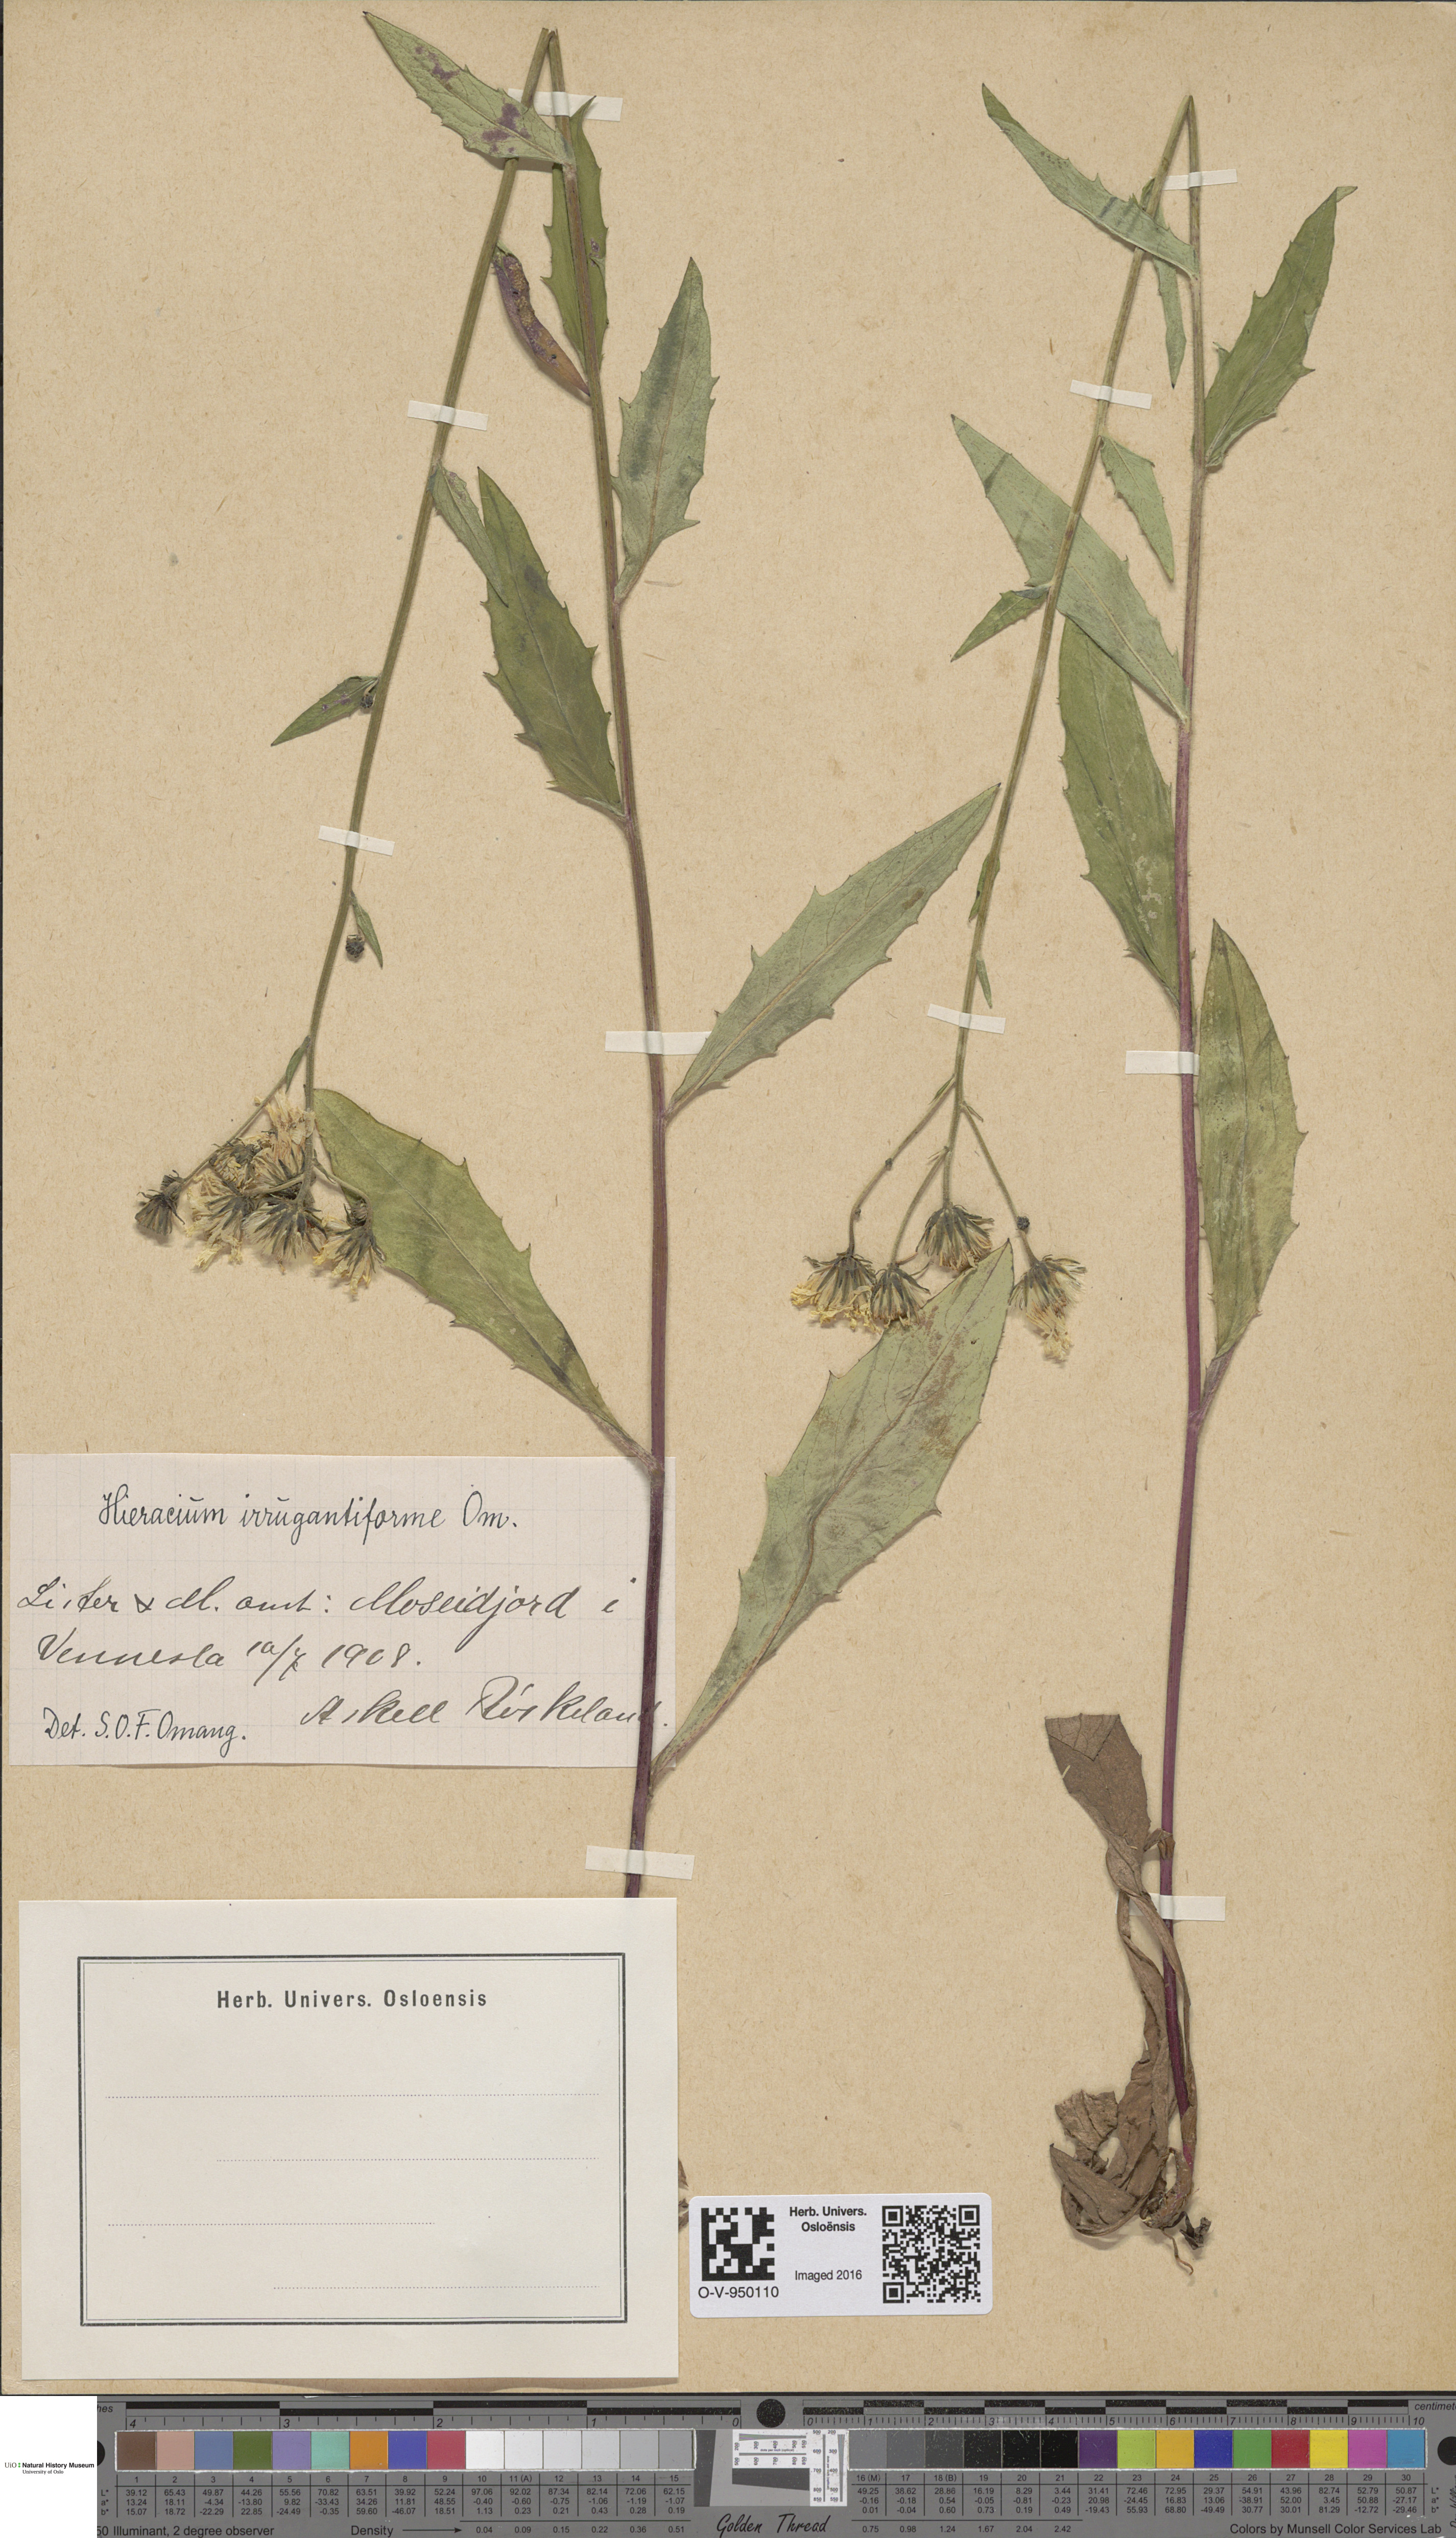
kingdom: Plantae
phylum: Tracheophyta
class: Magnoliopsida
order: Asterales
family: Asteraceae
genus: Hieracium
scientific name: Hieracium
